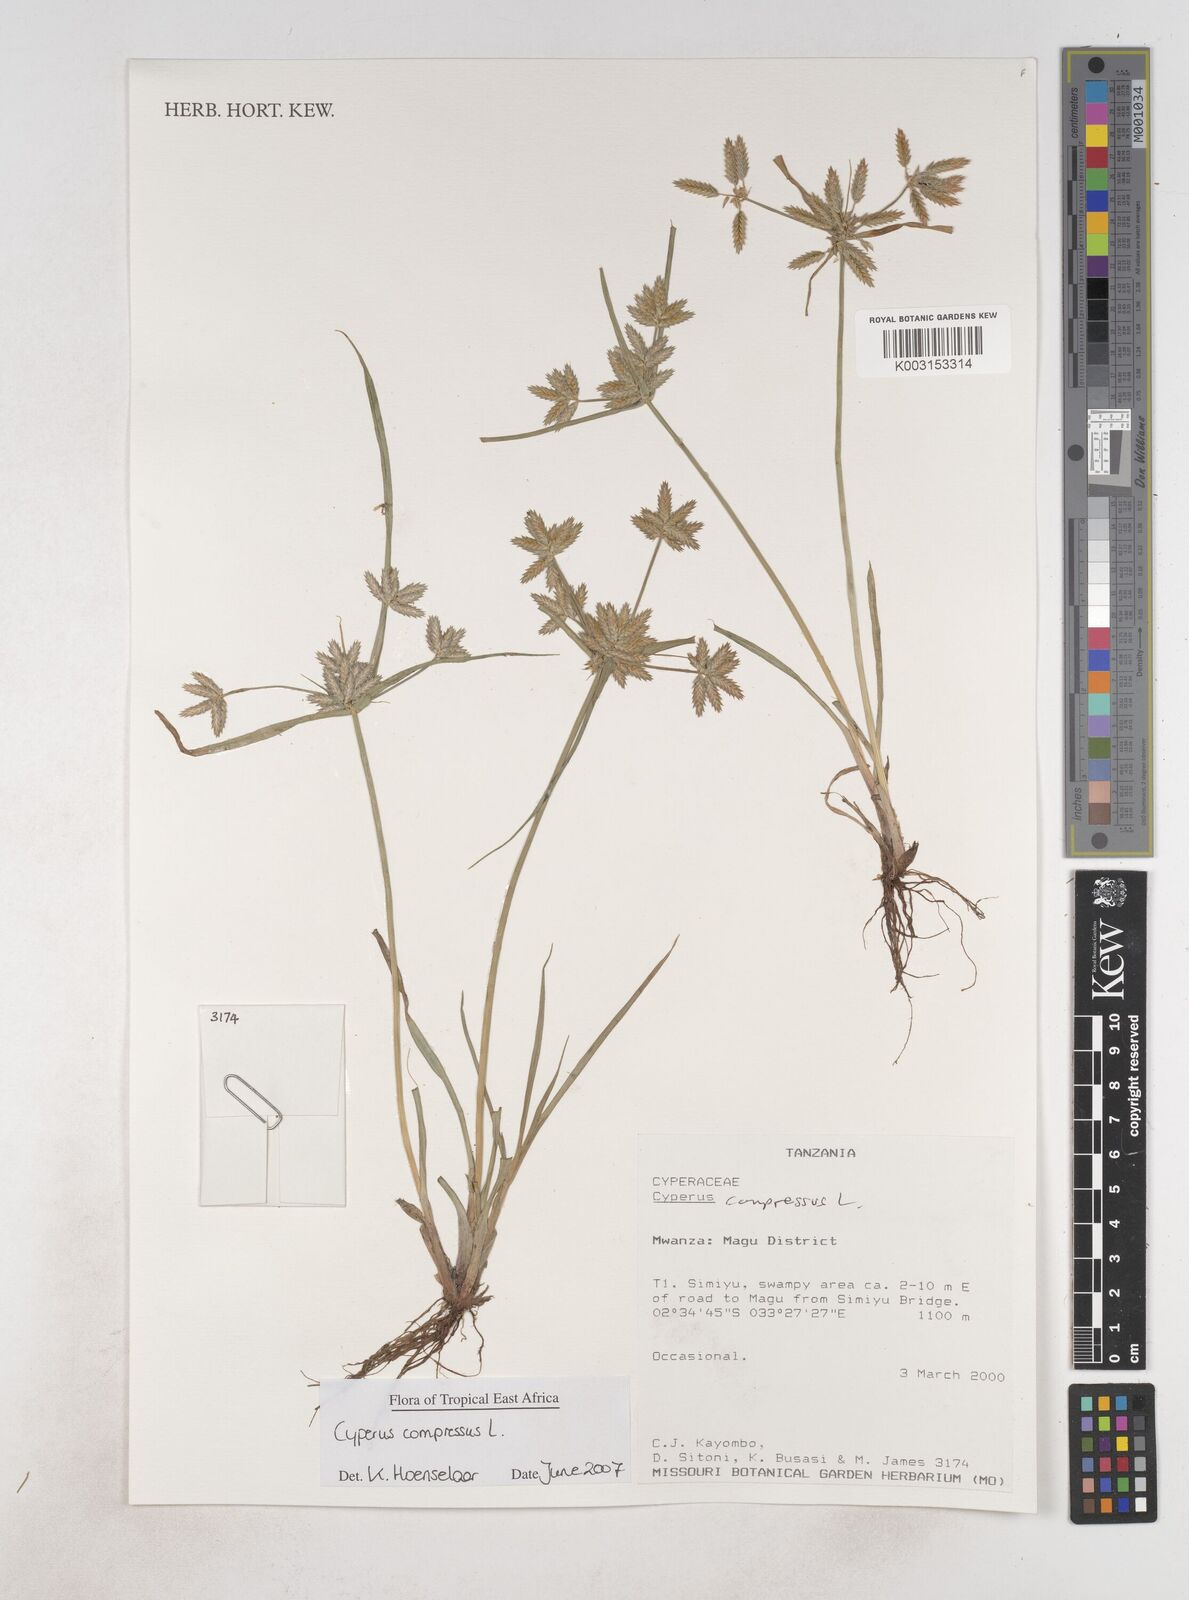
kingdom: Plantae
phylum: Tracheophyta
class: Liliopsida
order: Poales
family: Cyperaceae
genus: Cyperus
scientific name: Cyperus compressus
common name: Poorland flatsedge
